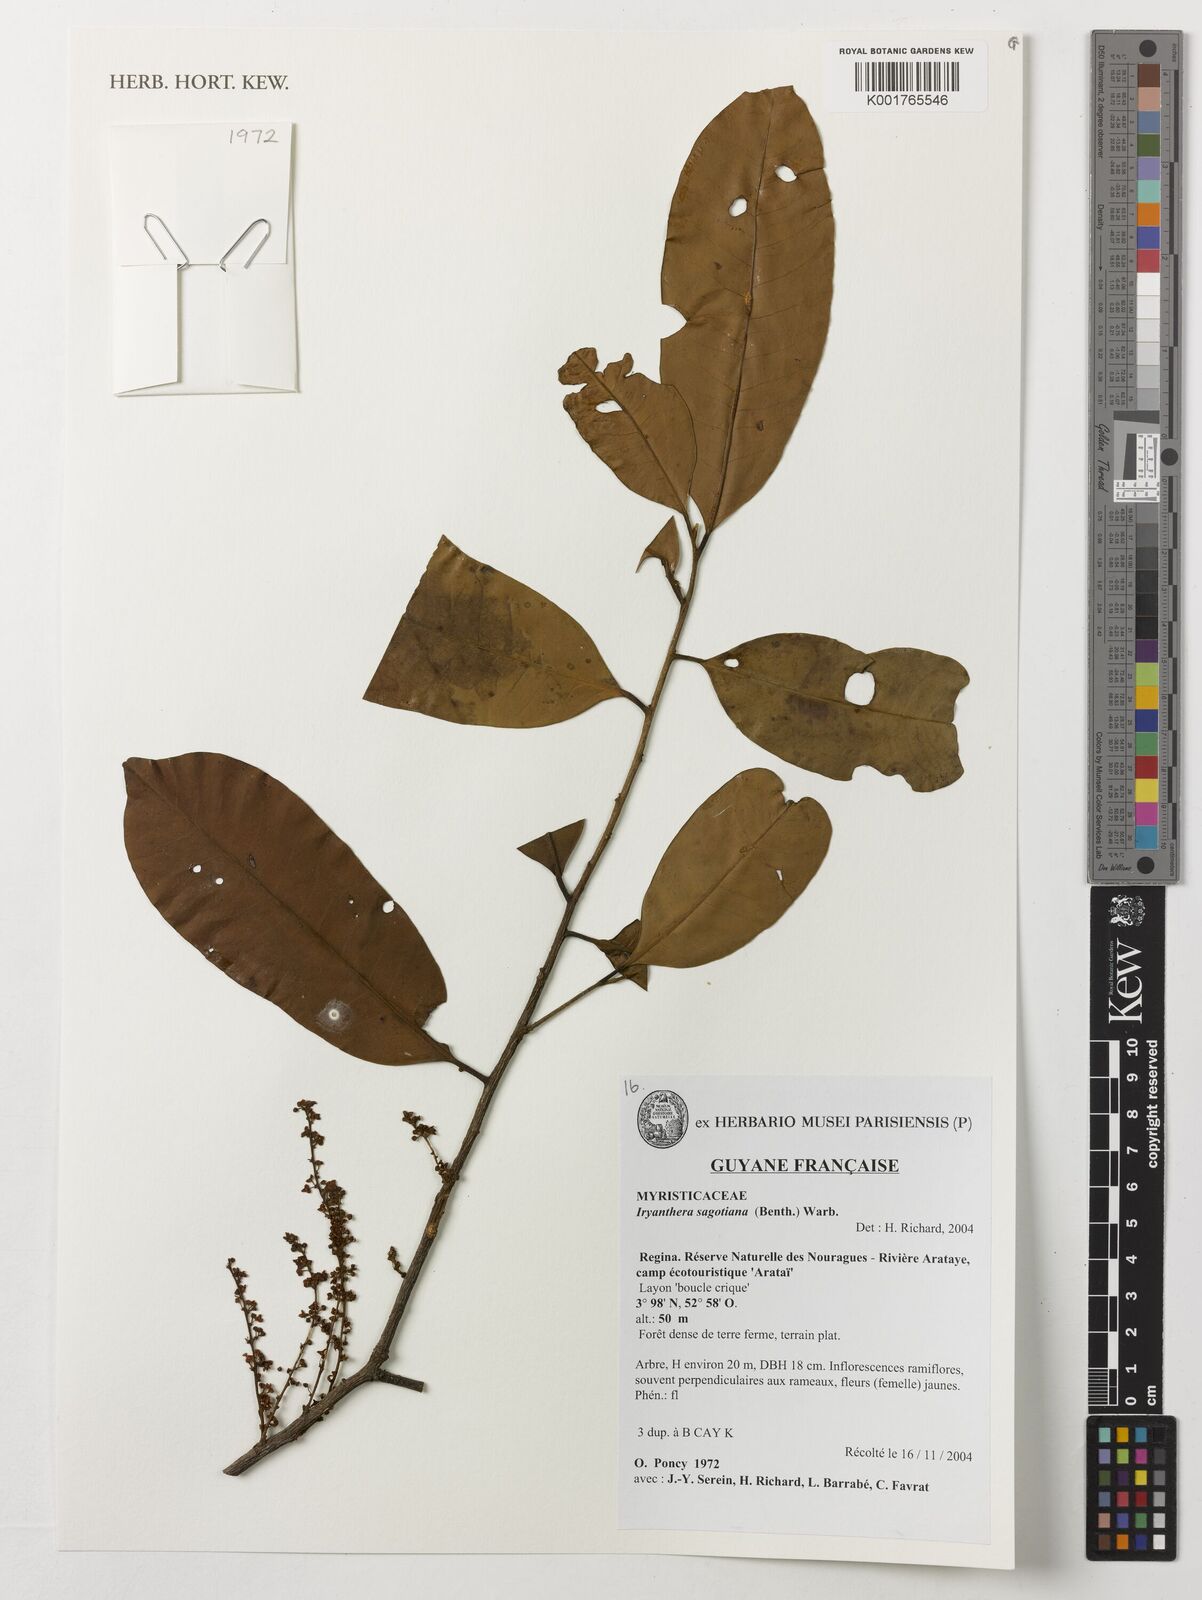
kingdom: Plantae
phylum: Tracheophyta
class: Magnoliopsida
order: Magnoliales
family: Myristicaceae
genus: Iryanthera
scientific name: Iryanthera sagotiana
